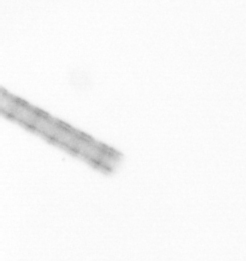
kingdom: Chromista
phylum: Ochrophyta
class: Bacillariophyceae
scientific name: Bacillariophyceae
